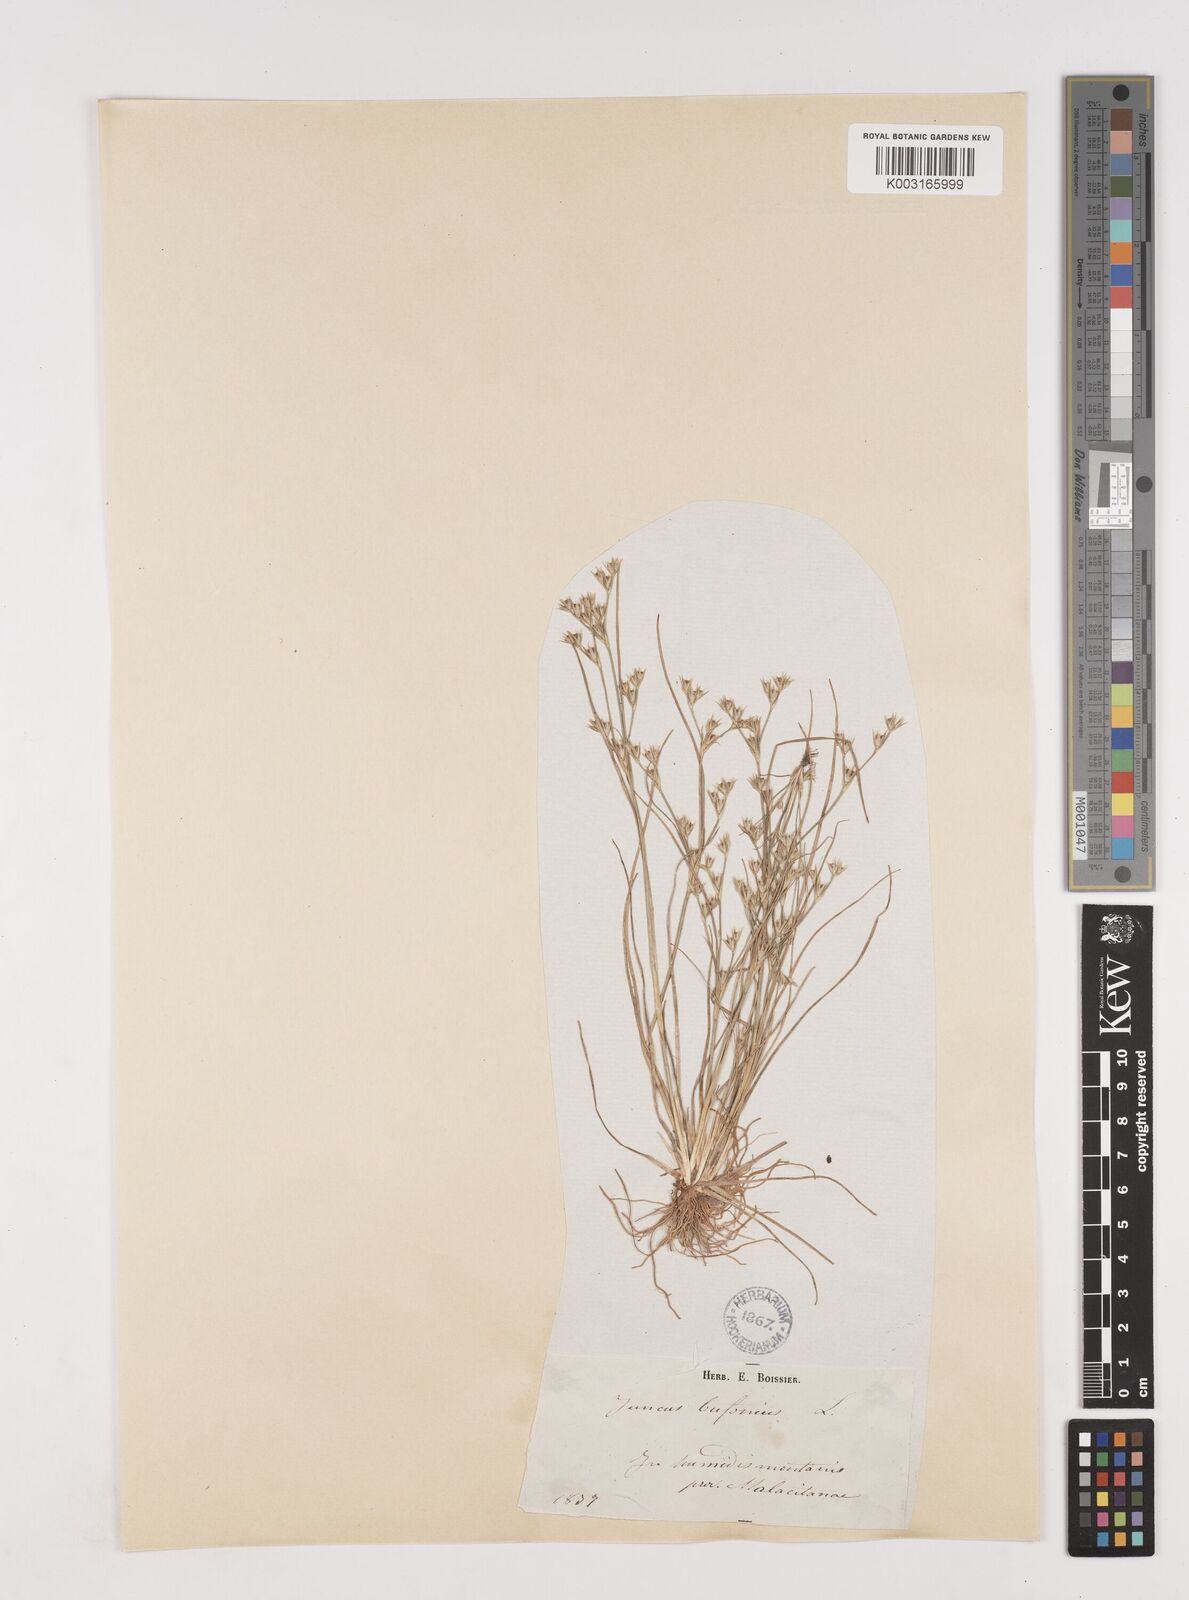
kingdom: Plantae
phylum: Tracheophyta
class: Liliopsida
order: Poales
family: Juncaceae
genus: Juncus
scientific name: Juncus bufonius
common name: Toad rush
